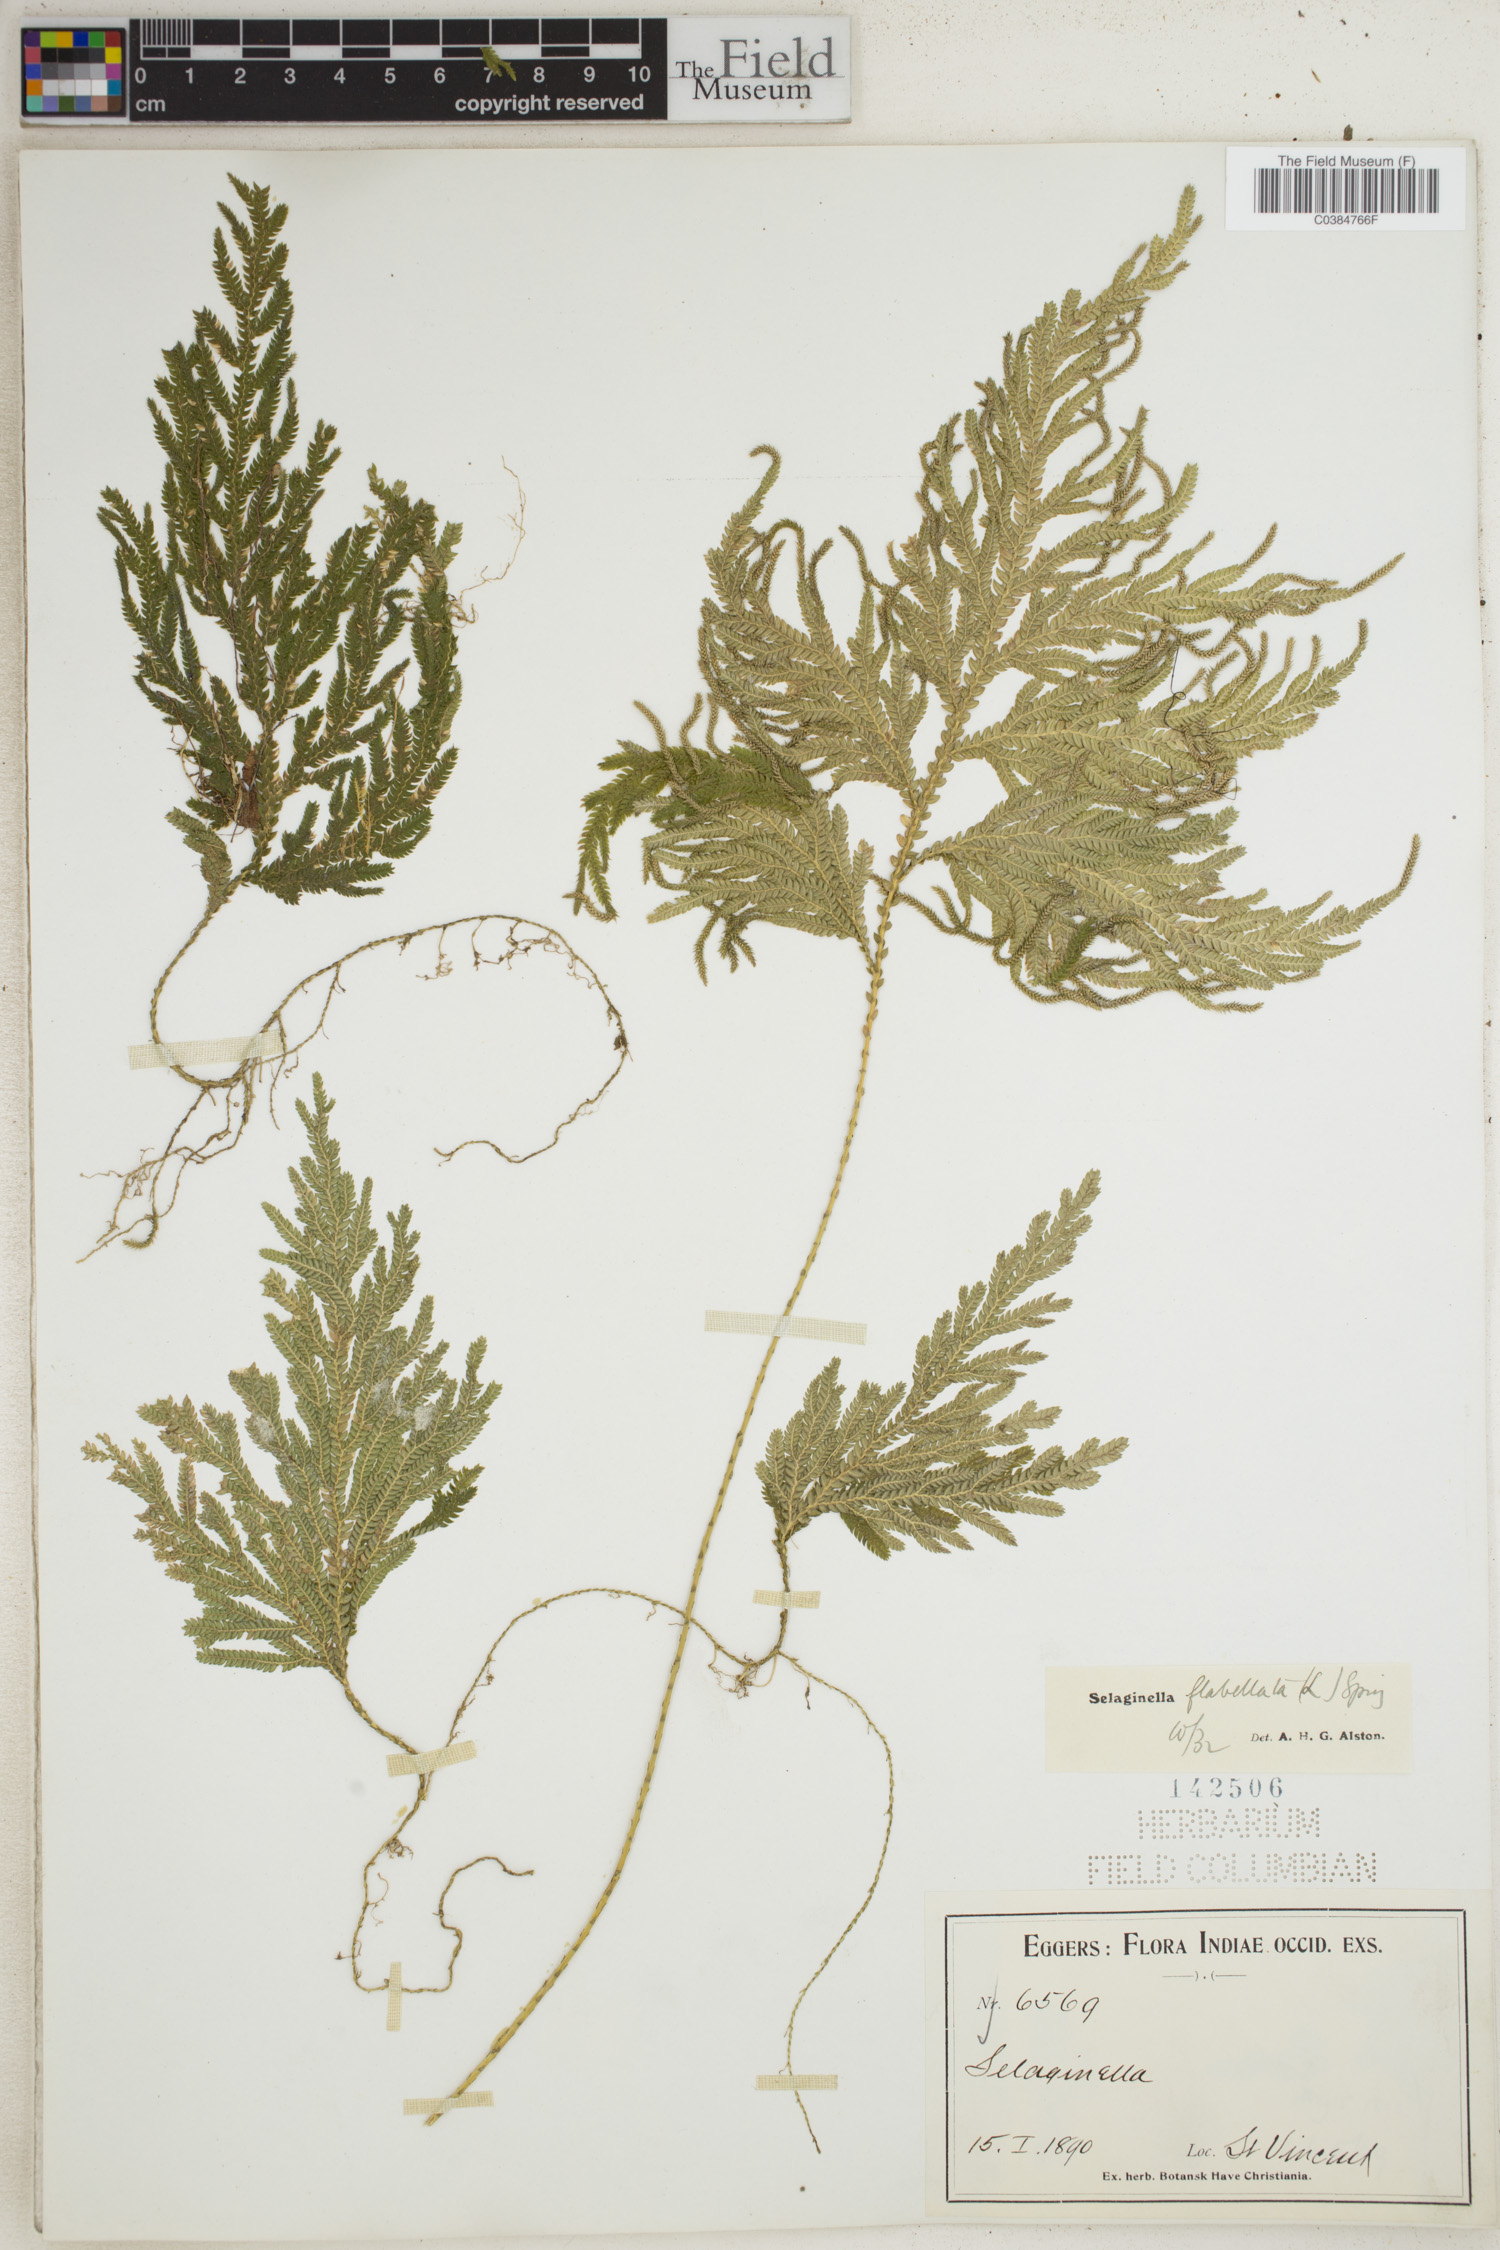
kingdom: Plantae
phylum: Tracheophyta
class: Lycopodiopsida
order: Selaginellales
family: Selaginellaceae
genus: Selaginella
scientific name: Selaginella flabellata
